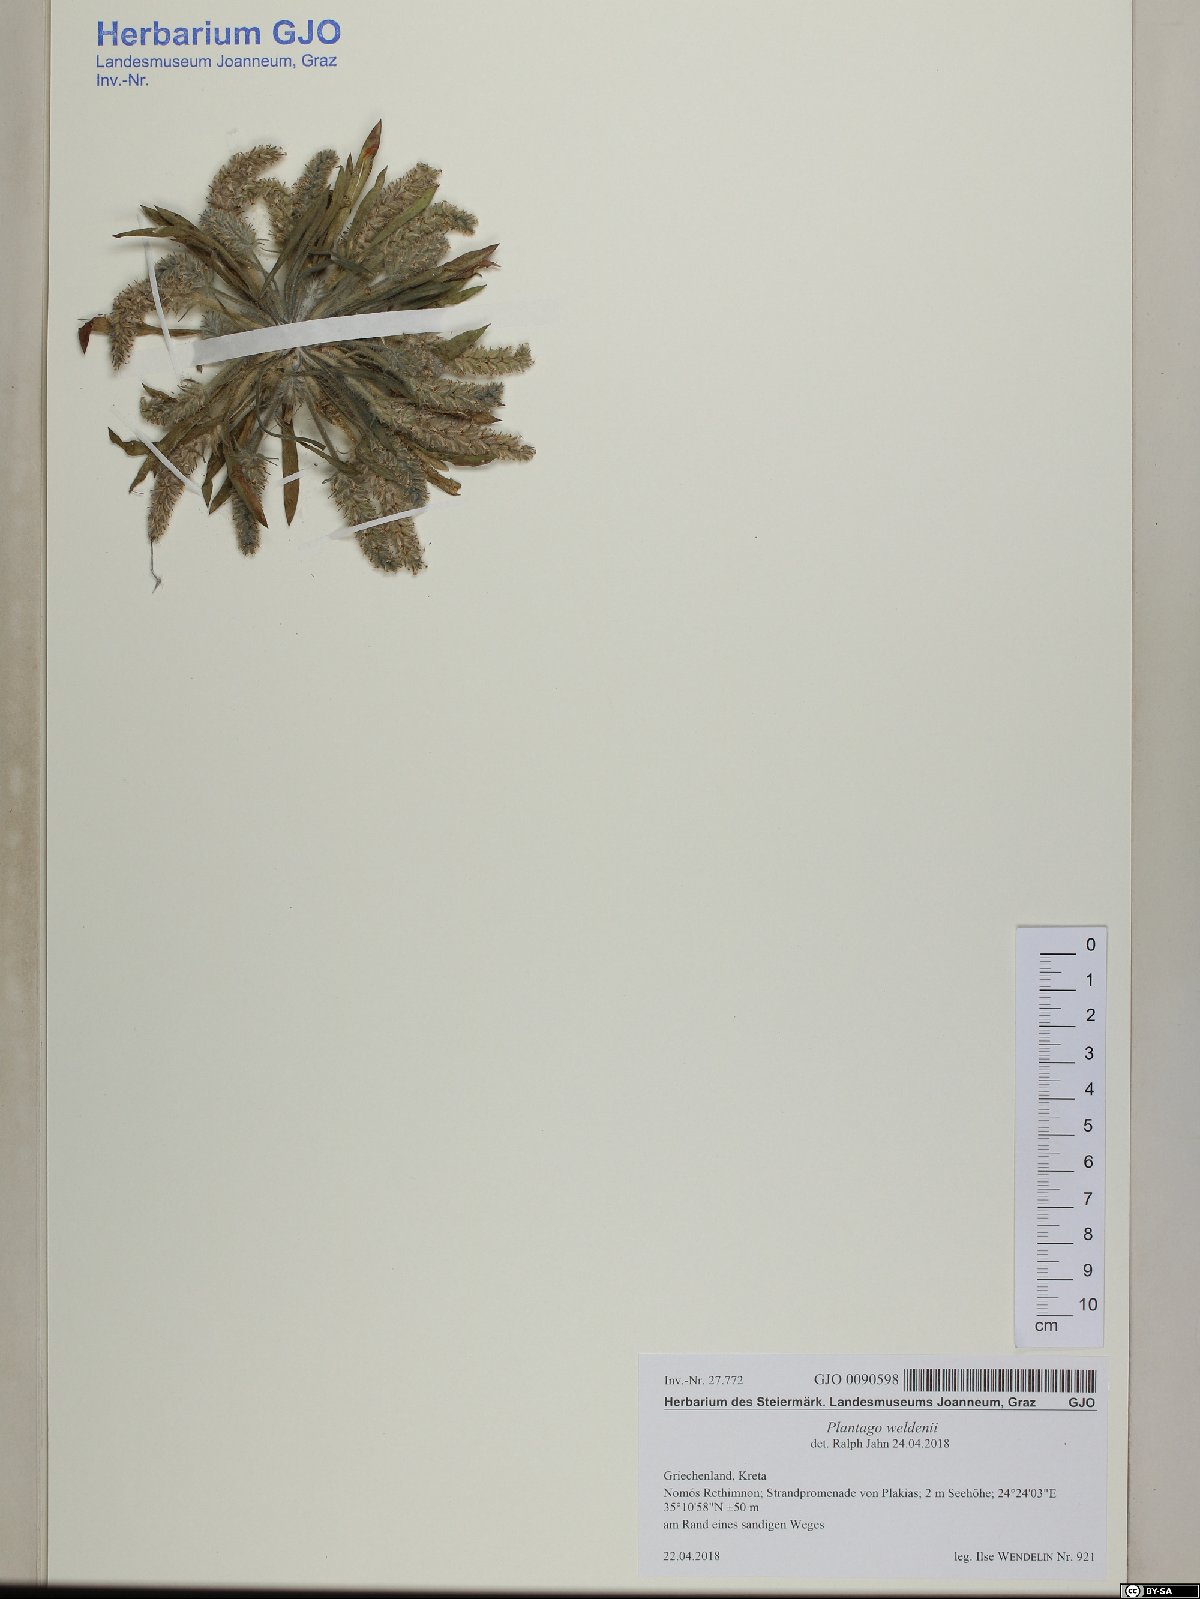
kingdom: Plantae
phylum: Tracheophyta
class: Magnoliopsida
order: Lamiales
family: Plantaginaceae
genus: Plantago
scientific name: Plantago weldenii
